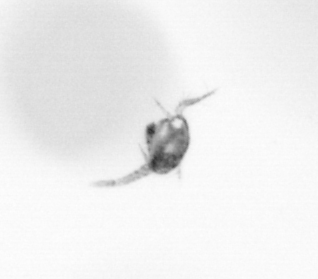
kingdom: Animalia
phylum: Arthropoda
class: Copepoda
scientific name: Copepoda
